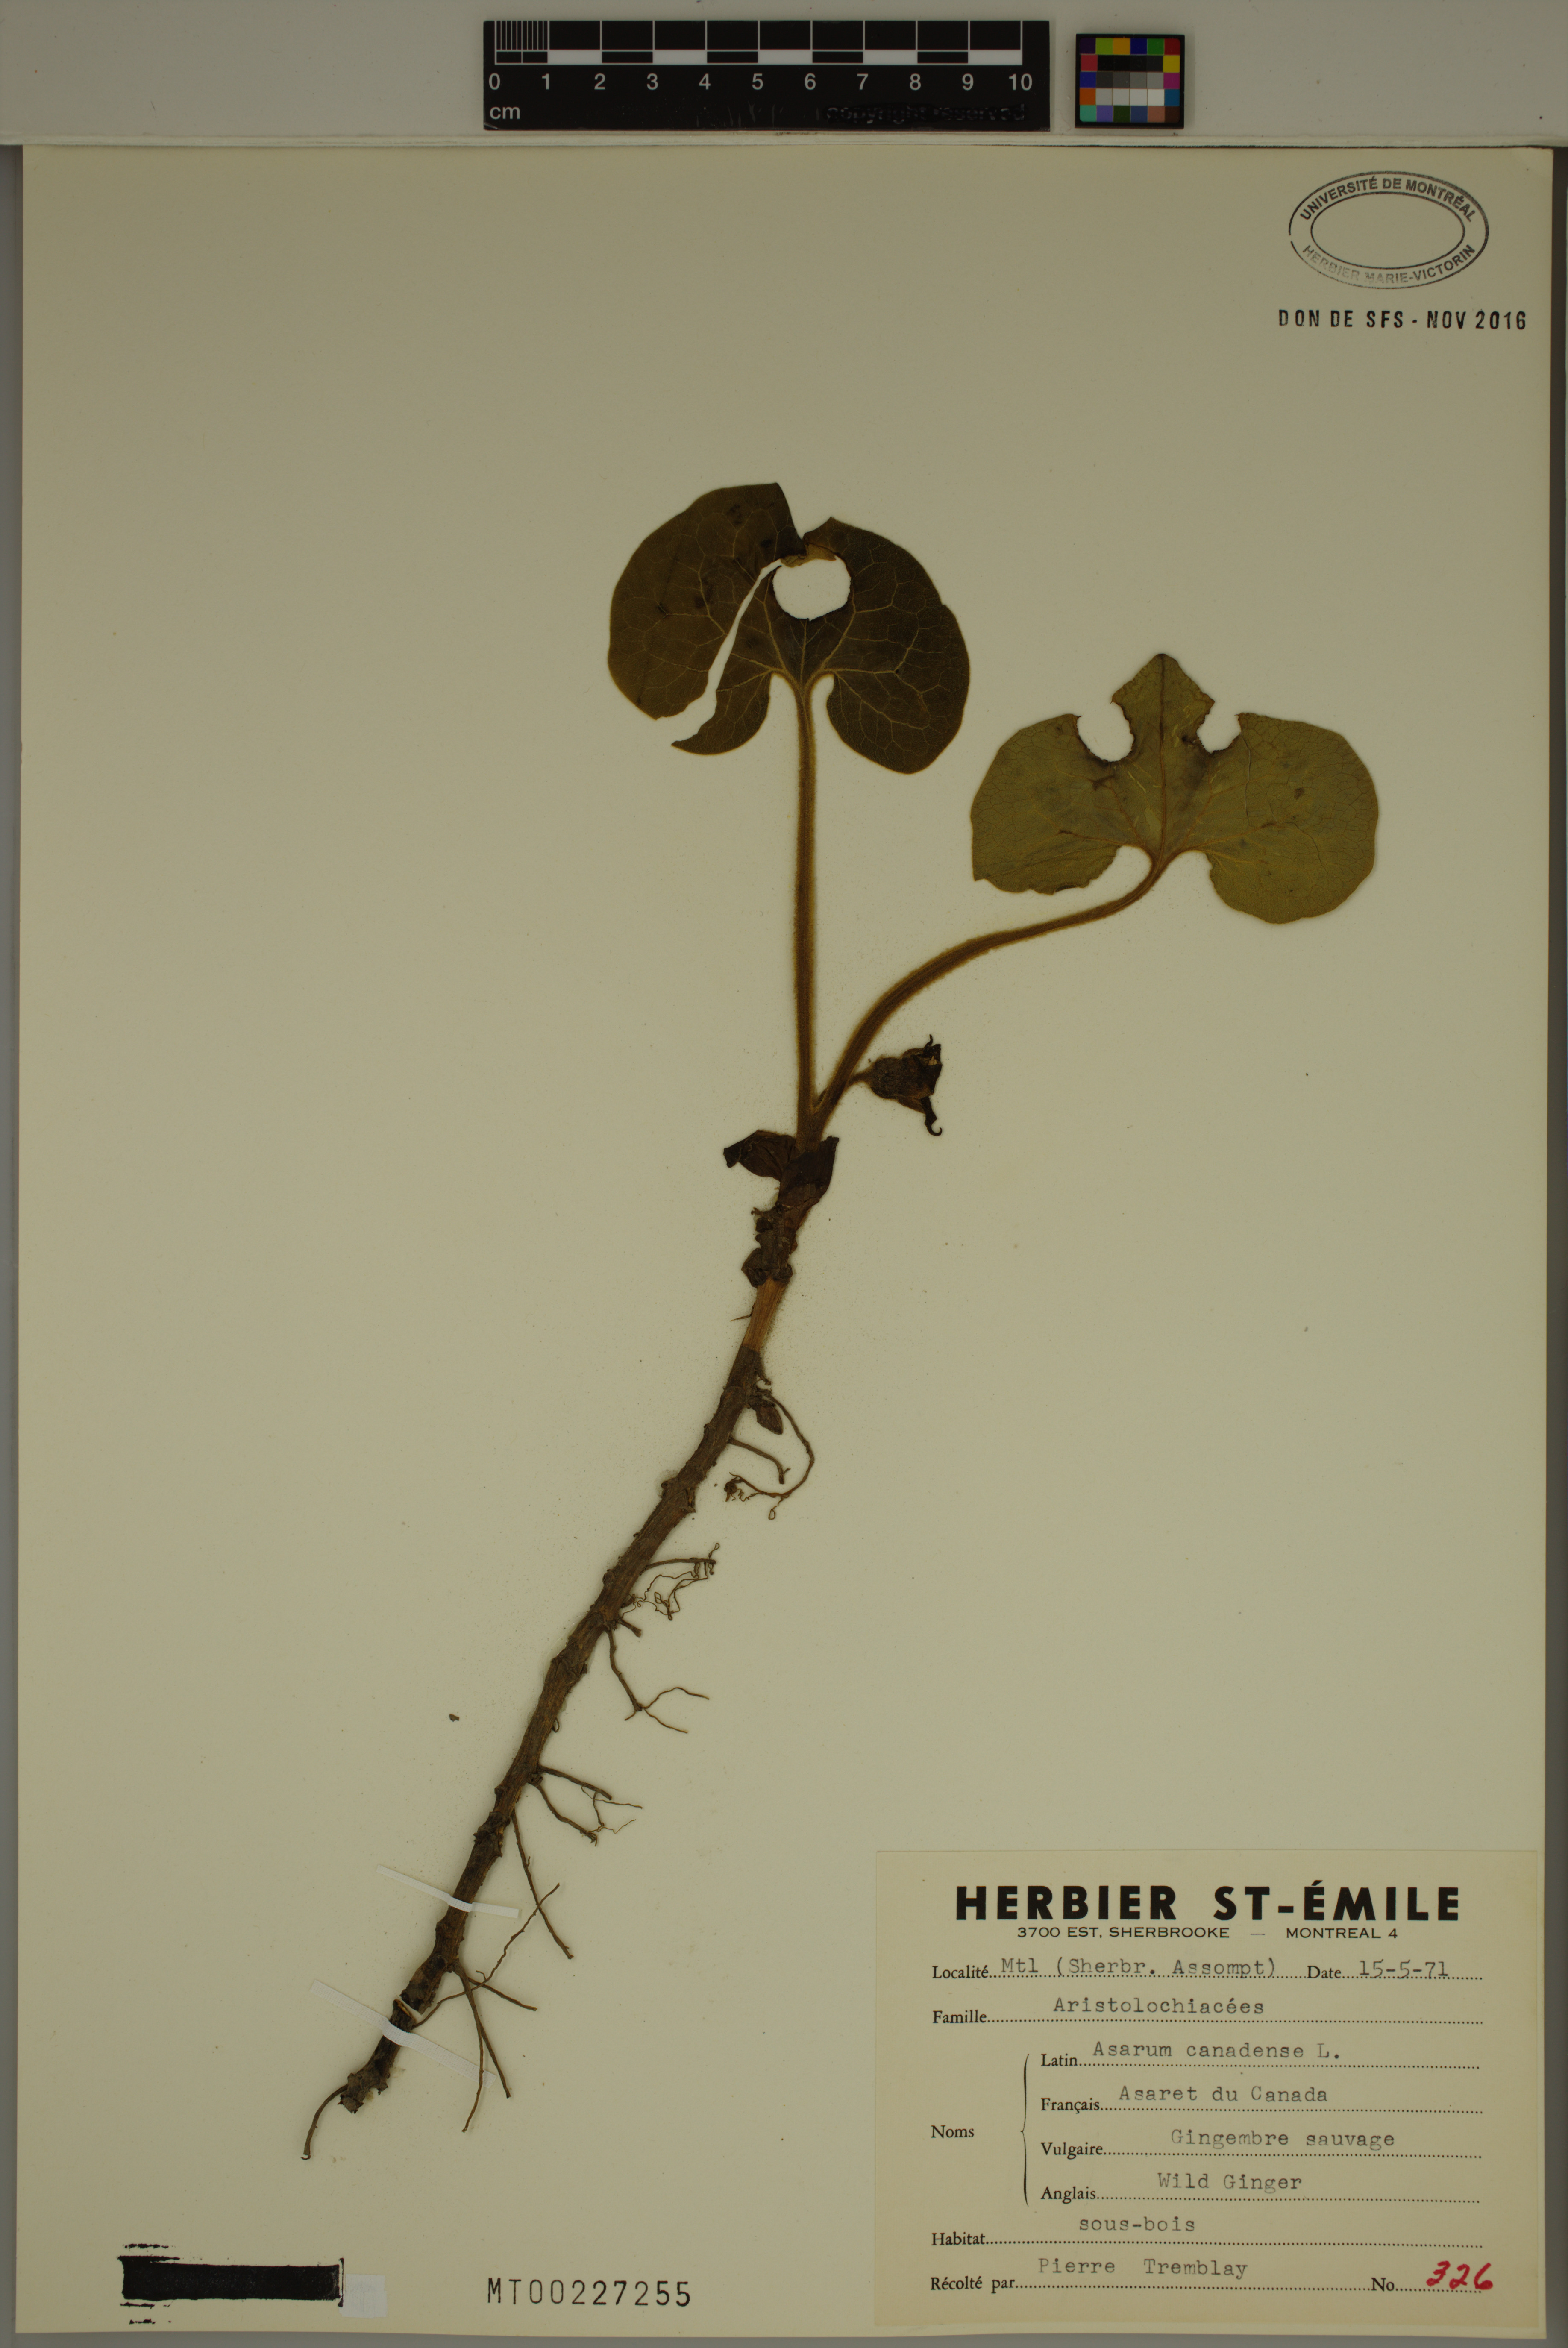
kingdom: Plantae
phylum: Tracheophyta
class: Magnoliopsida
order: Piperales
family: Aristolochiaceae
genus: Asarum
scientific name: Asarum canadense
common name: Wild ginger
